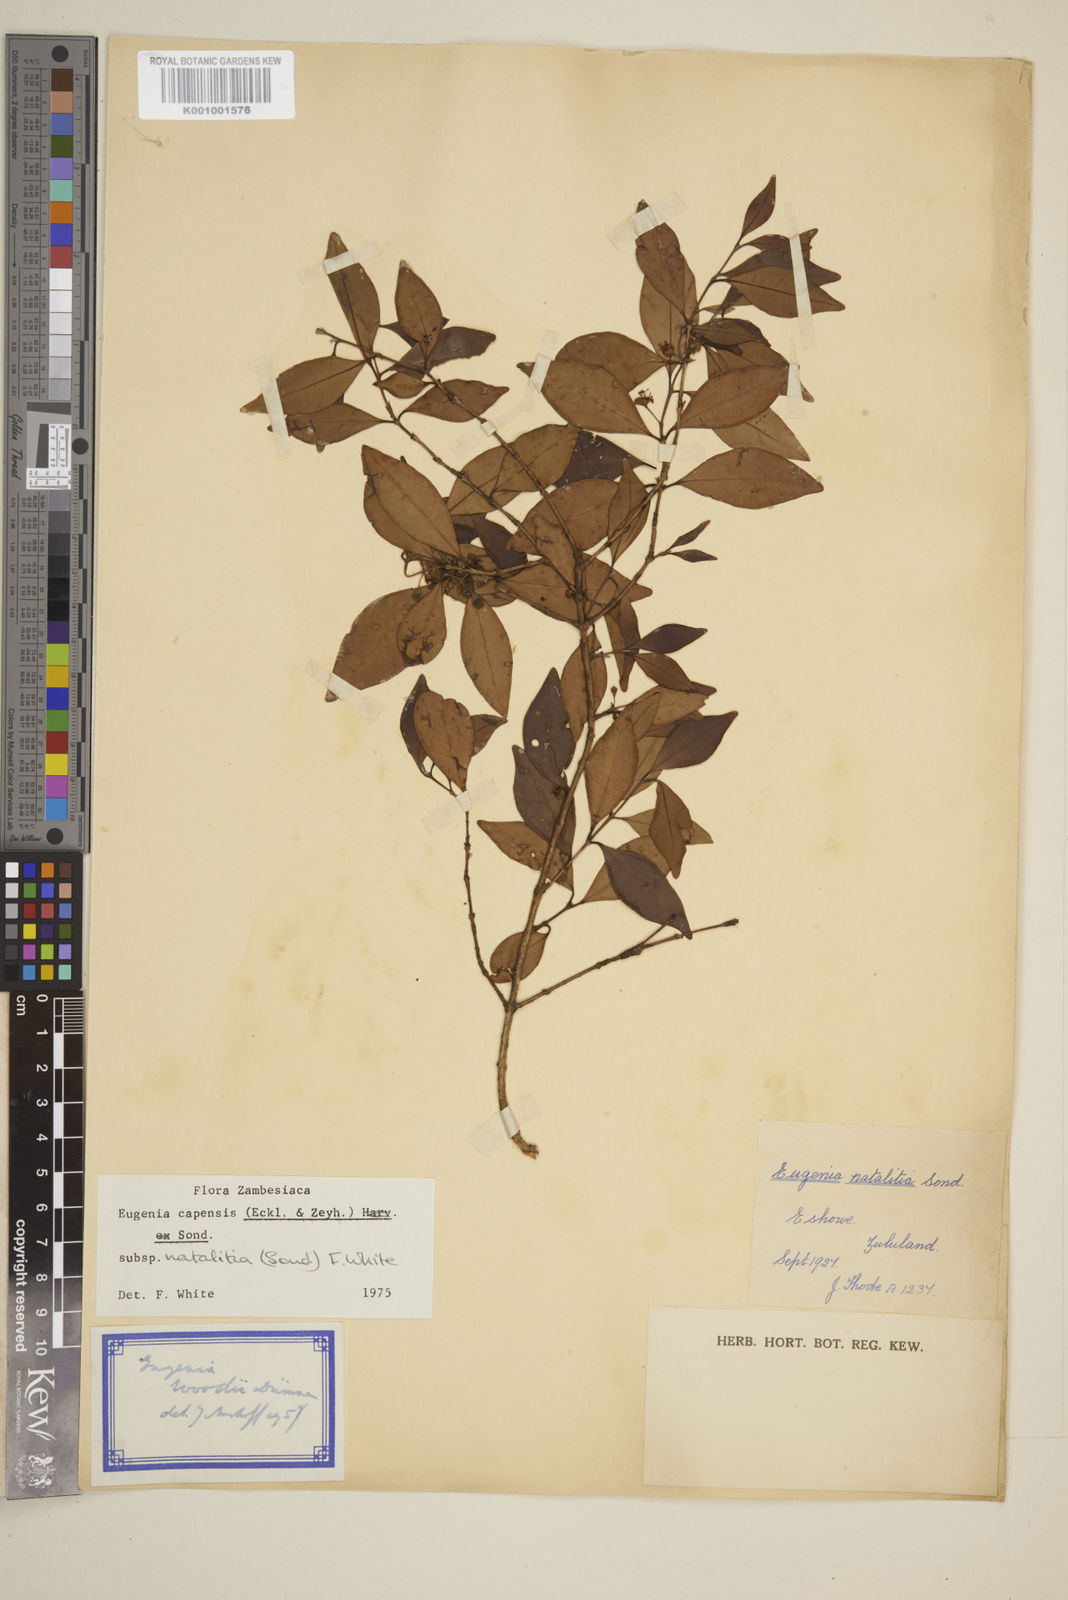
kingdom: Plantae
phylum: Tracheophyta
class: Magnoliopsida
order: Myrtales
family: Myrtaceae
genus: Eugenia
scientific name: Eugenia natalitia
